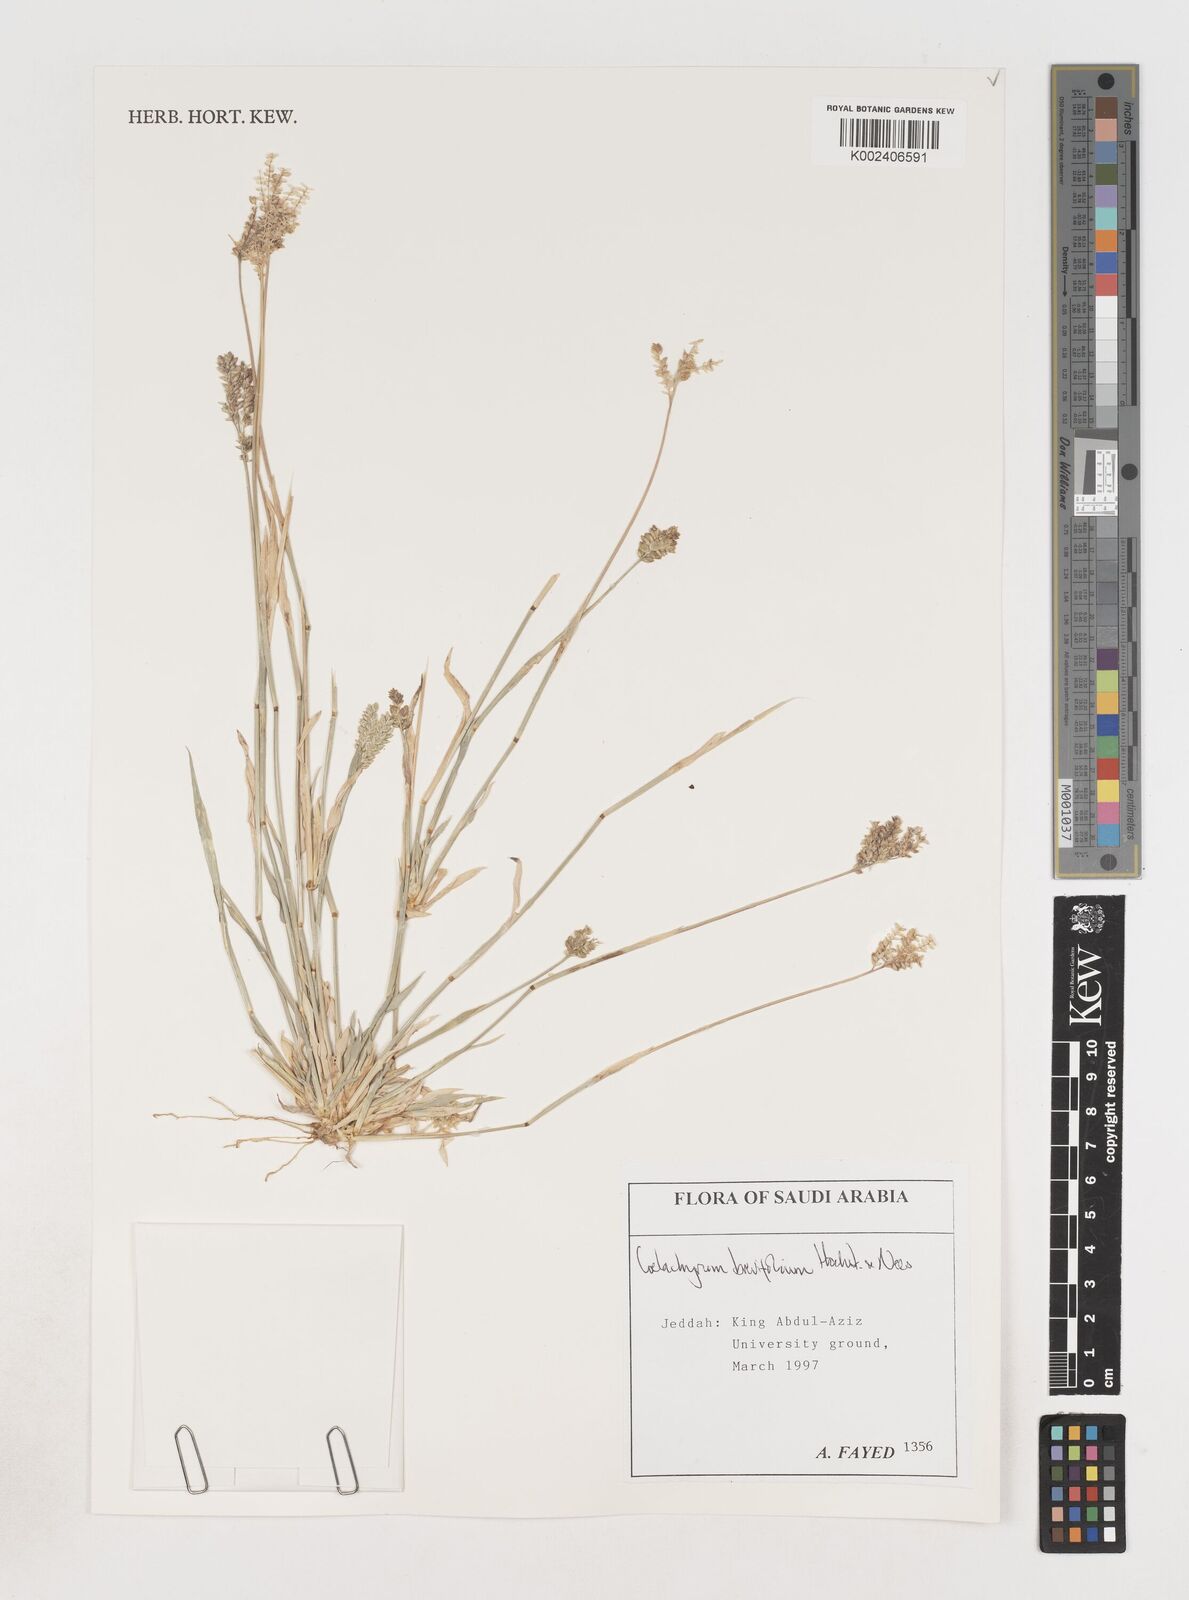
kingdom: Plantae
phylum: Tracheophyta
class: Liliopsida
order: Poales
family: Poaceae
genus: Coelachyrum
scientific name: Coelachyrum brevifolium
